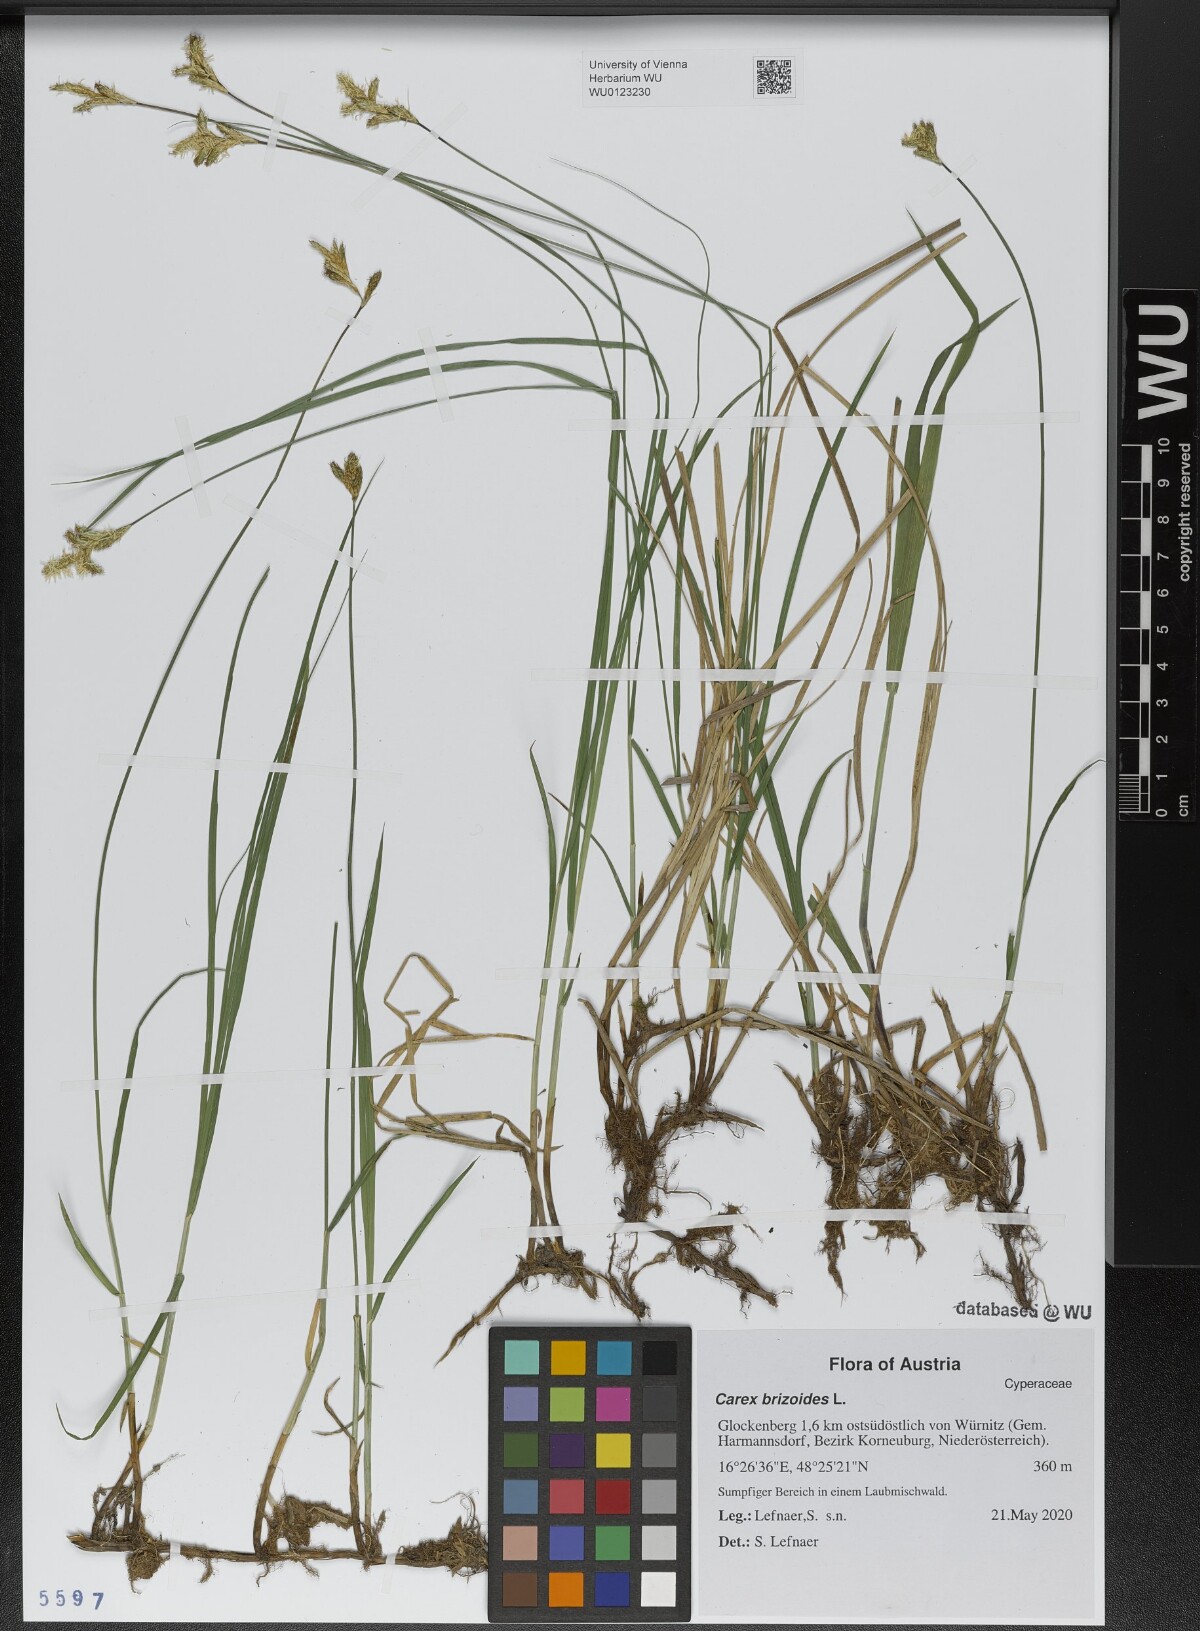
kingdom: Plantae
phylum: Tracheophyta
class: Liliopsida
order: Poales
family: Cyperaceae
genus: Carex
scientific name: Carex brizoides
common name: Quaking-grass sedge
